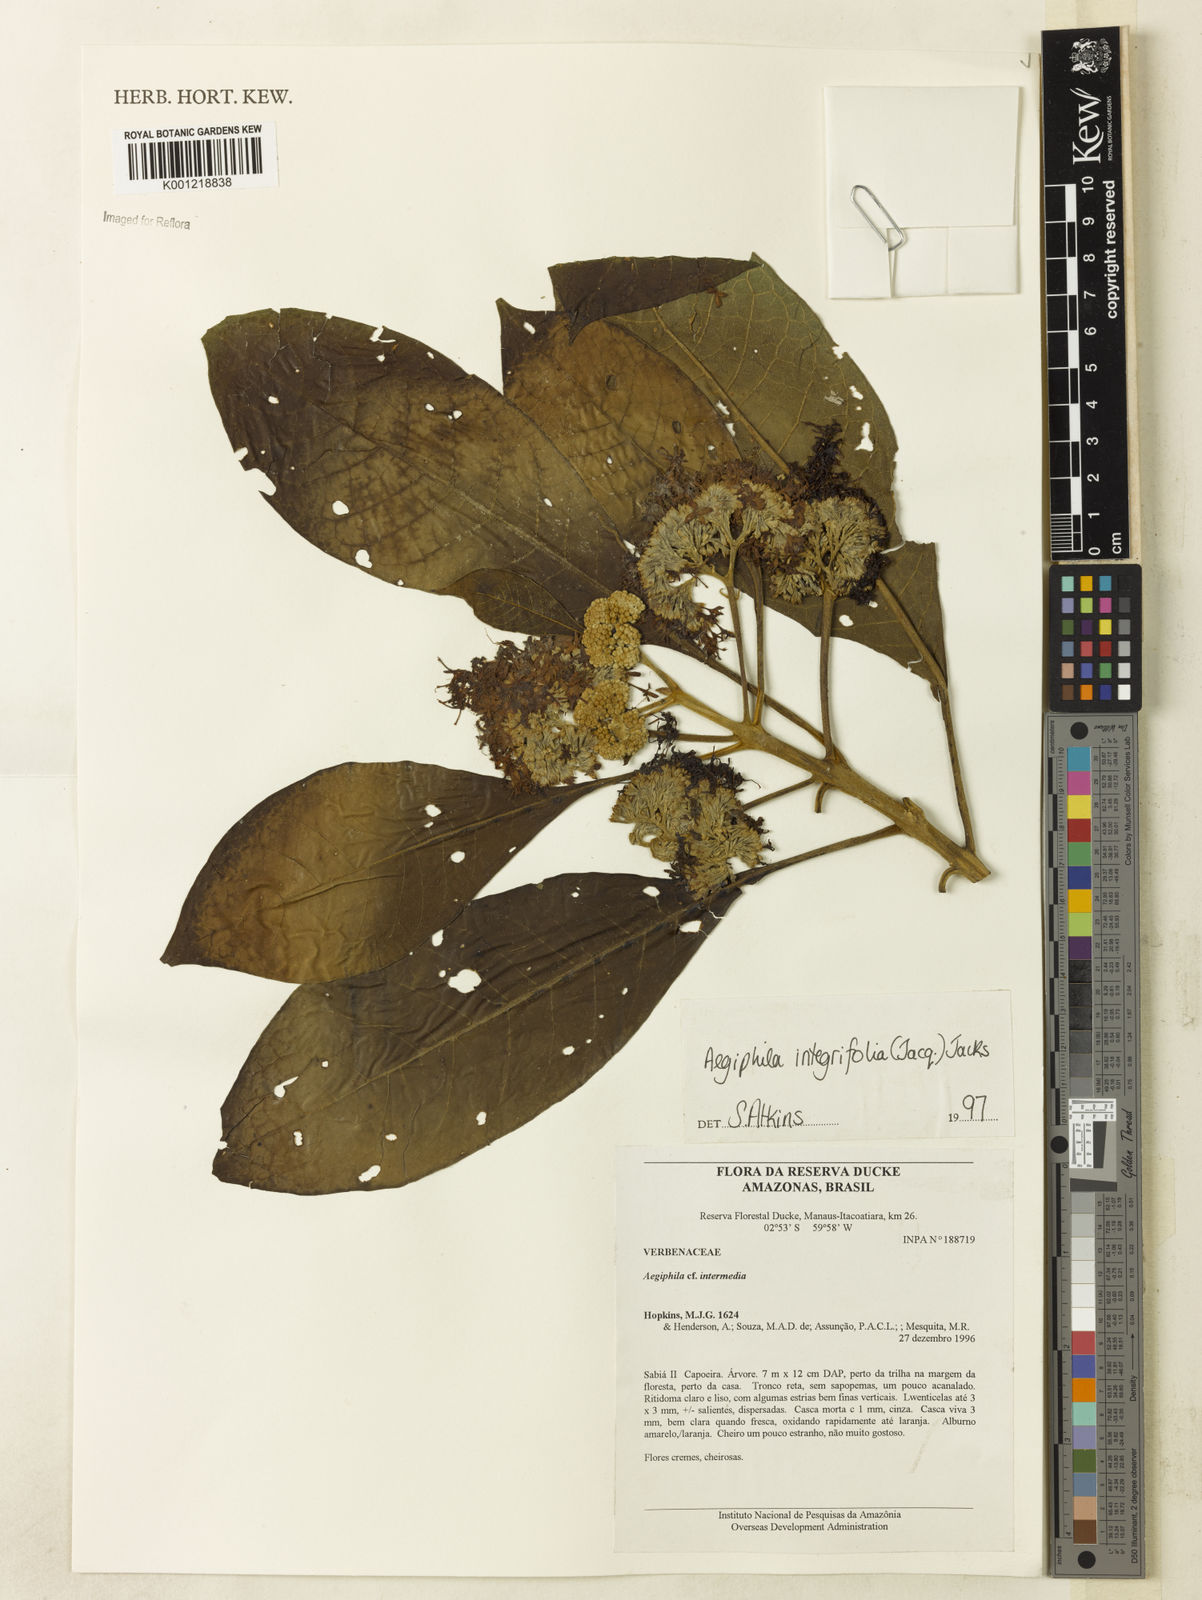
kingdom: Plantae
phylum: Tracheophyta
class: Magnoliopsida
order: Lamiales
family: Lamiaceae
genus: Aegiphila
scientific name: Aegiphila
